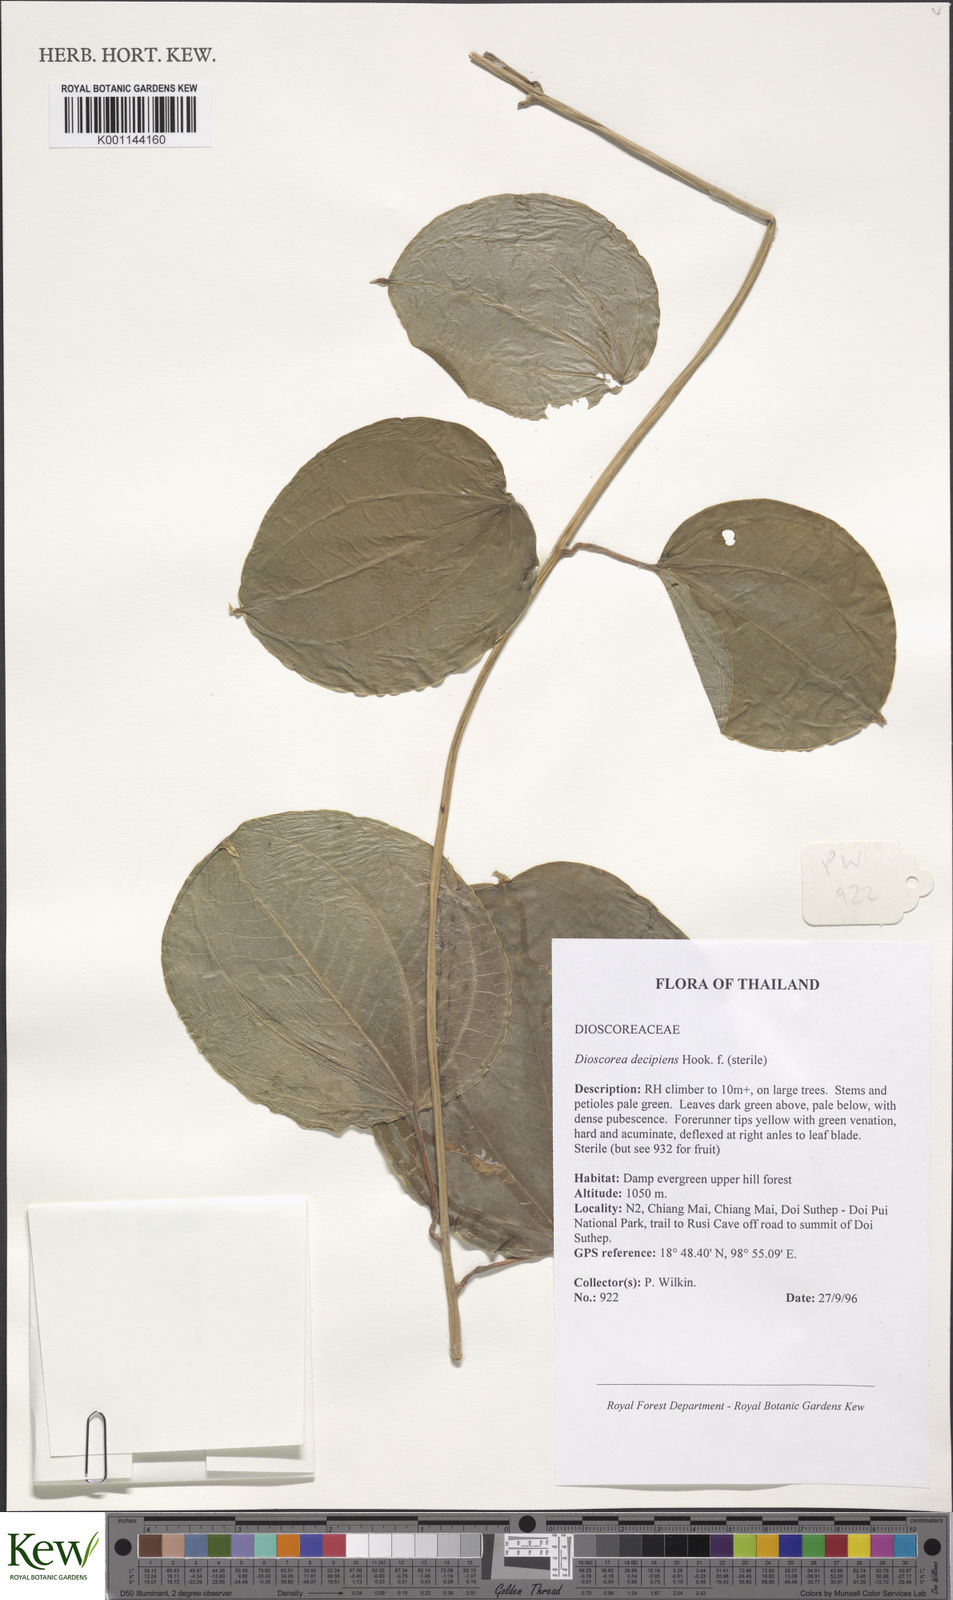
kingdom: Plantae
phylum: Tracheophyta
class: Liliopsida
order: Dioscoreales
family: Dioscoreaceae
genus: Dioscorea
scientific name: Dioscorea decipiens
